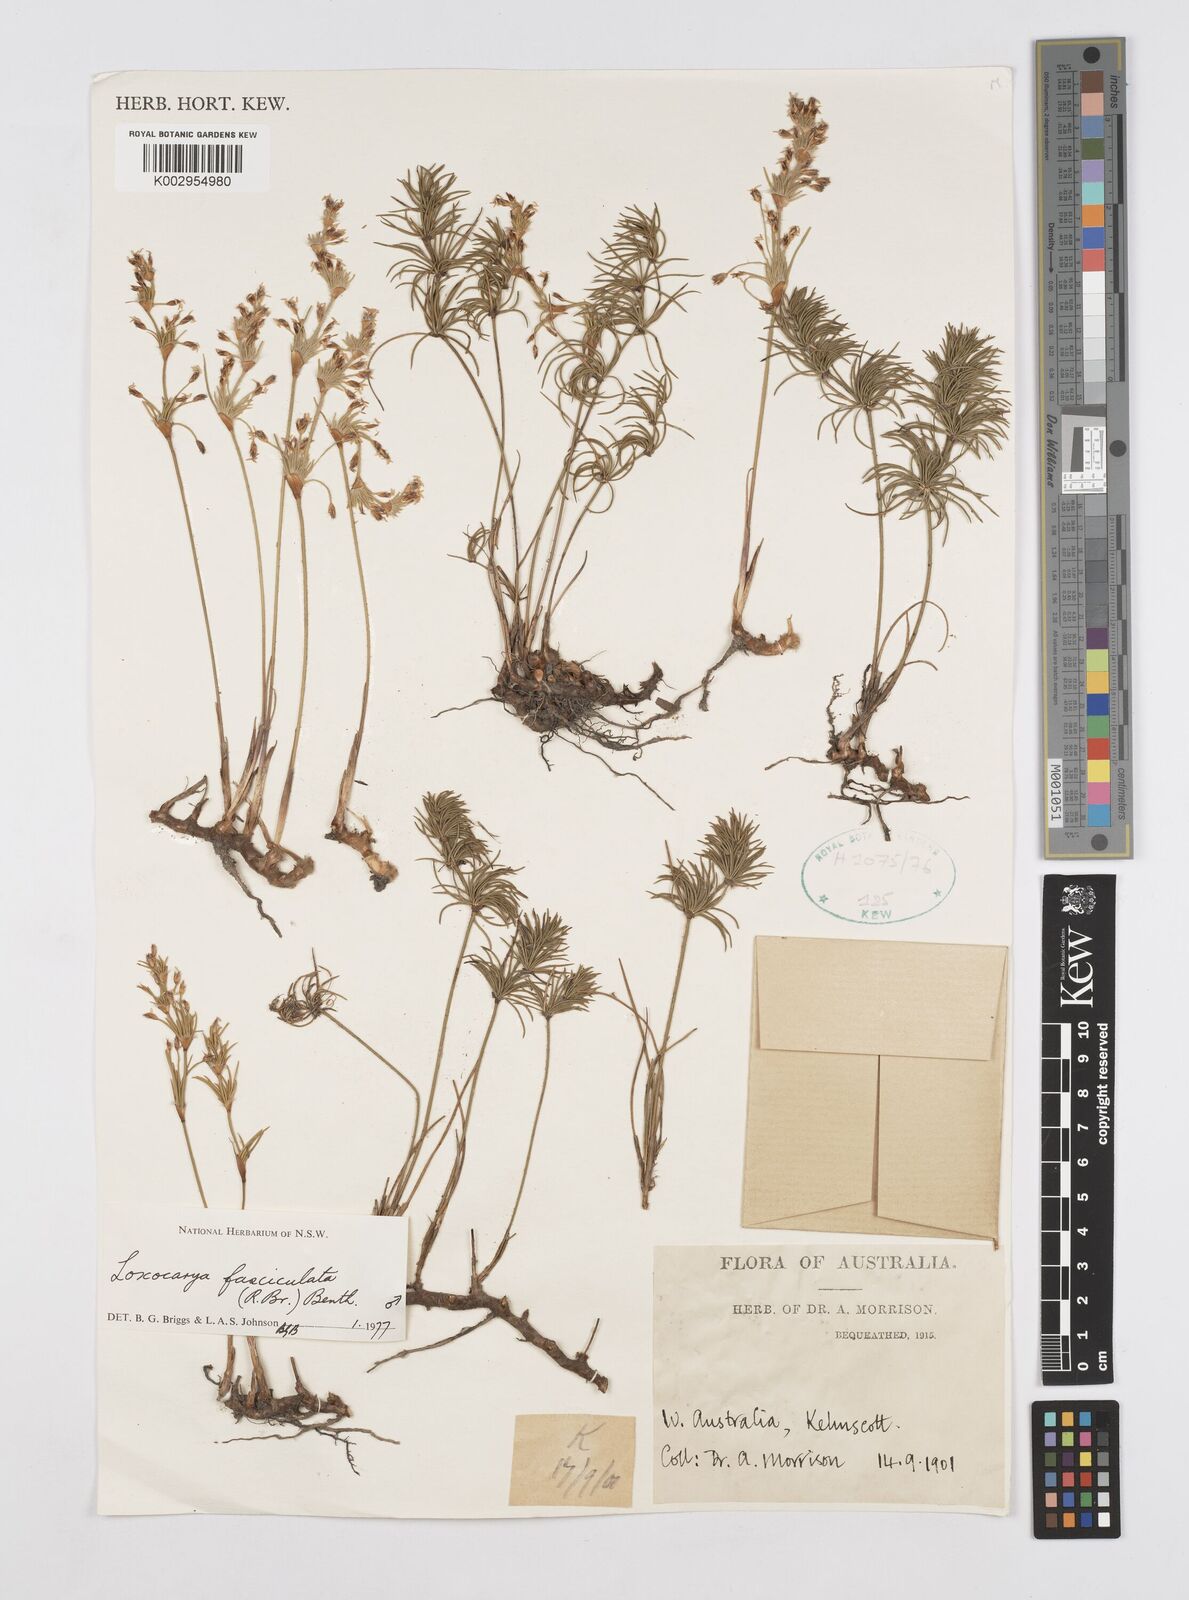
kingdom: Plantae
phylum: Tracheophyta
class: Liliopsida
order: Poales
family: Restionaceae
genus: Desmocladus
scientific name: Desmocladus fasciculatus
